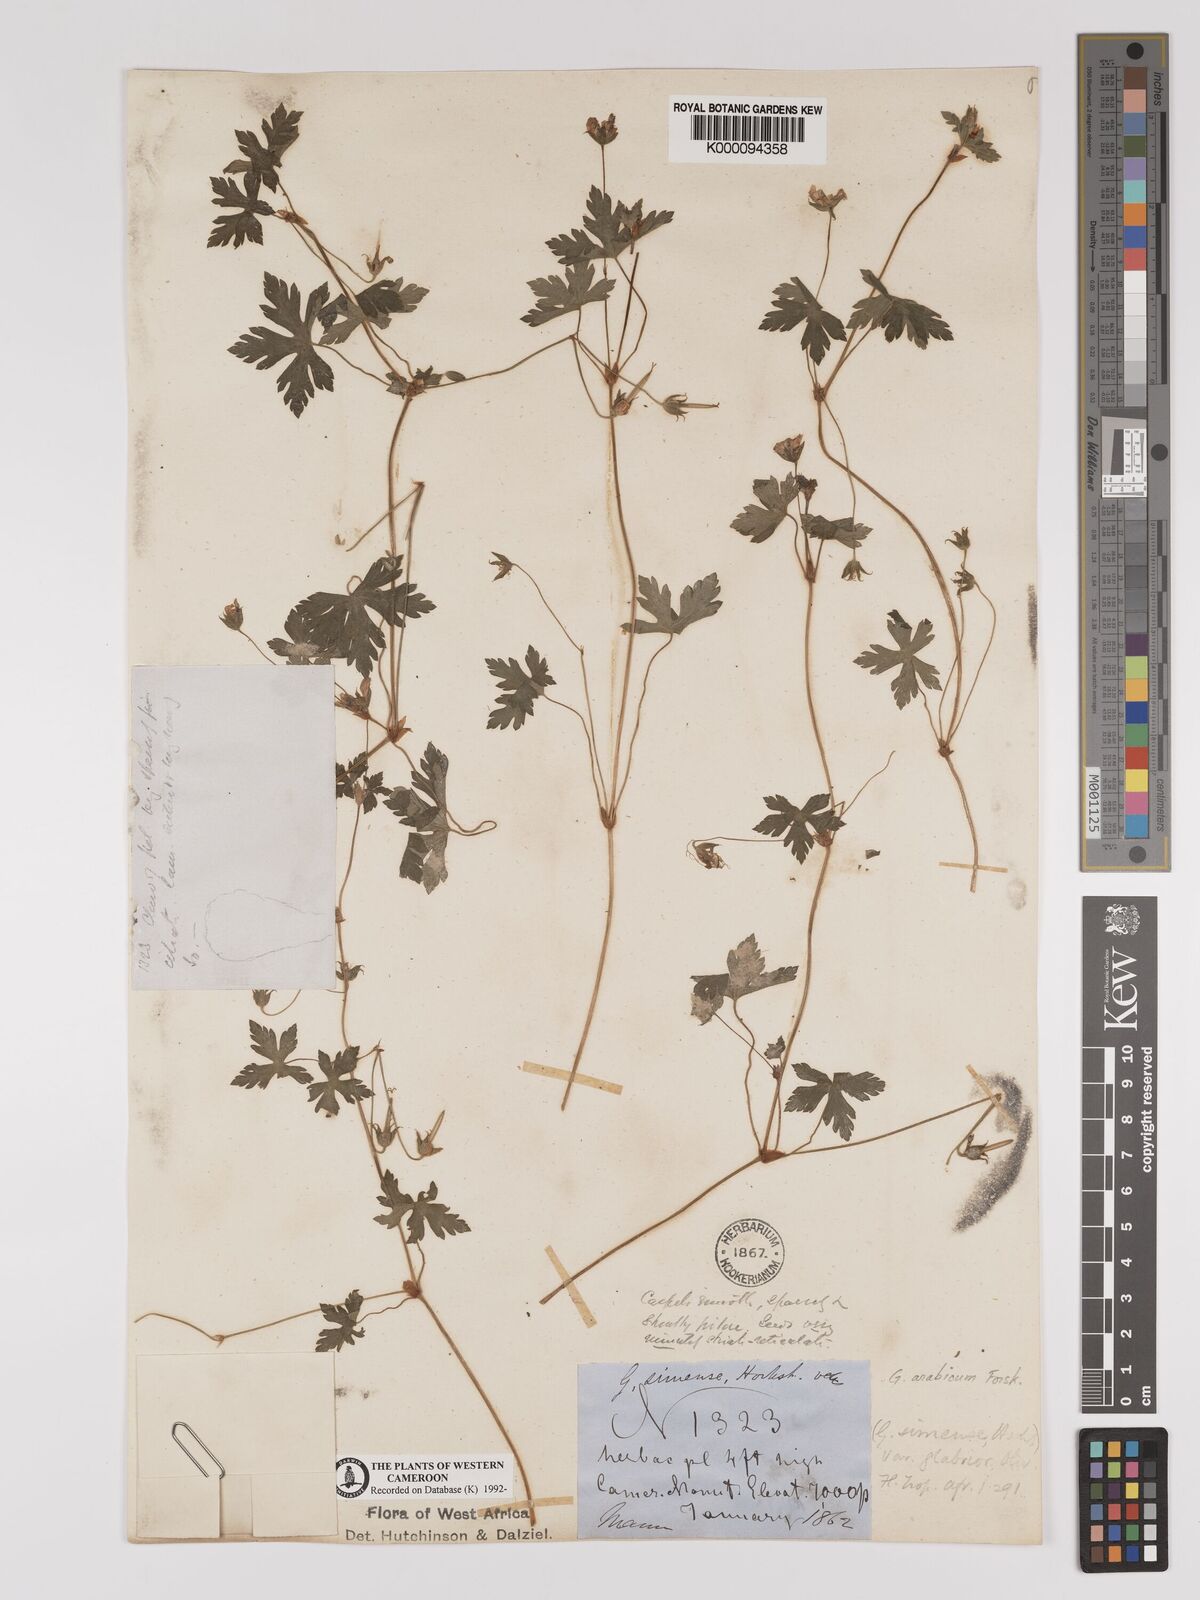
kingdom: Plantae
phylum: Tracheophyta
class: Magnoliopsida
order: Geraniales
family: Geraniaceae
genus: Geranium
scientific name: Geranium arabicum
